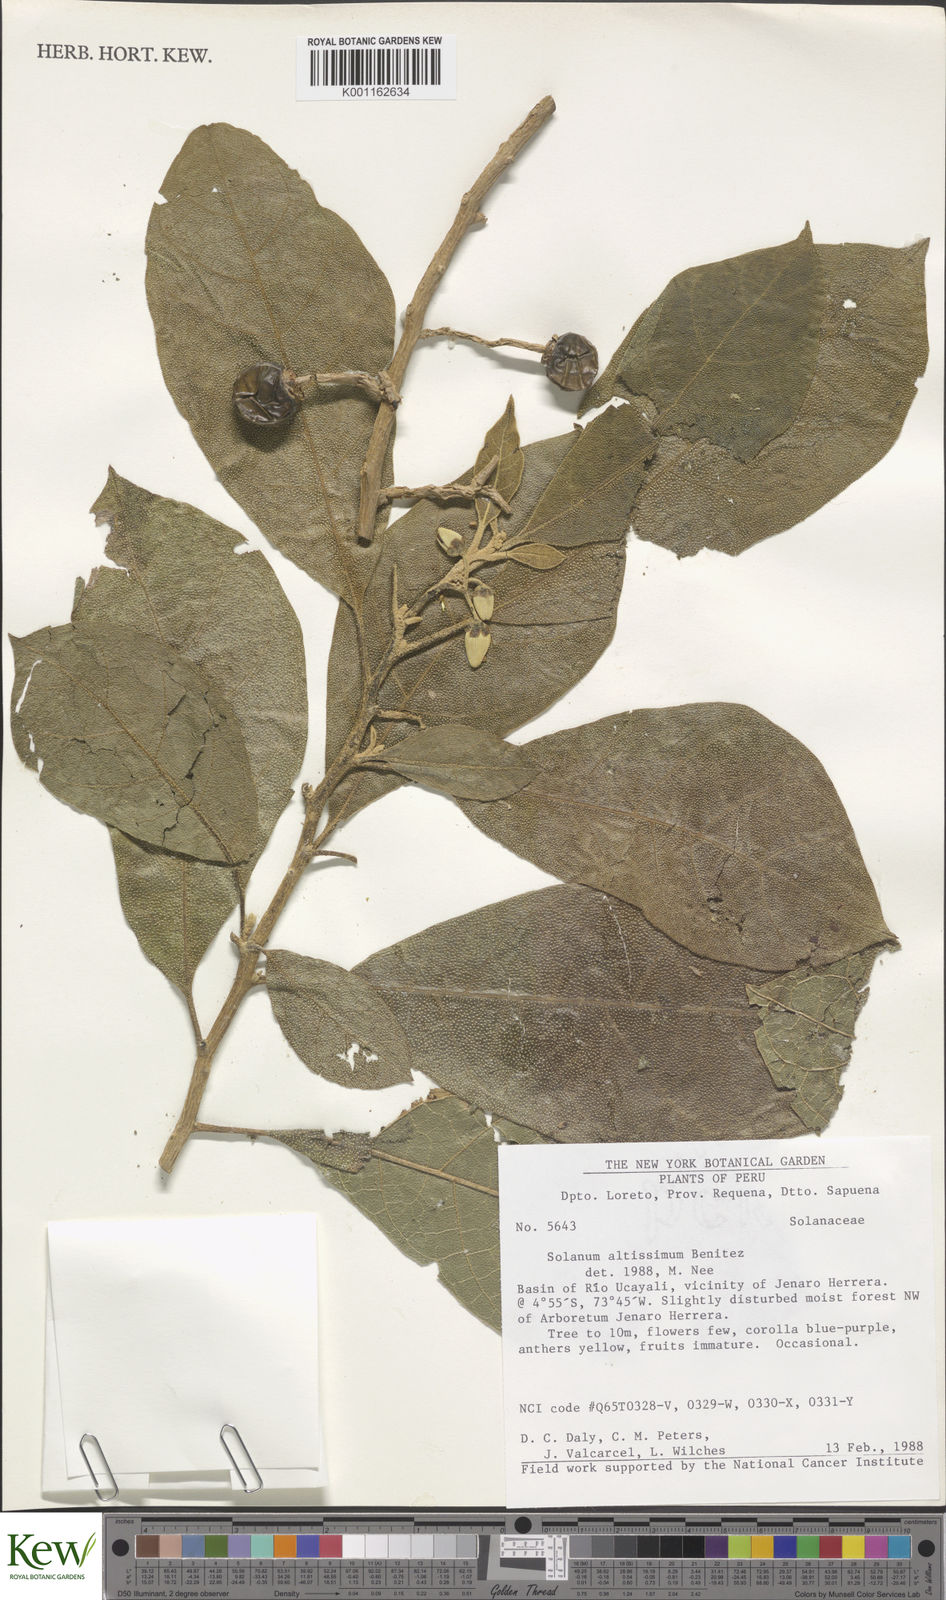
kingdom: Plantae
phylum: Tracheophyta
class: Magnoliopsida
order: Solanales
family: Solanaceae
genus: Solanum
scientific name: Solanum
